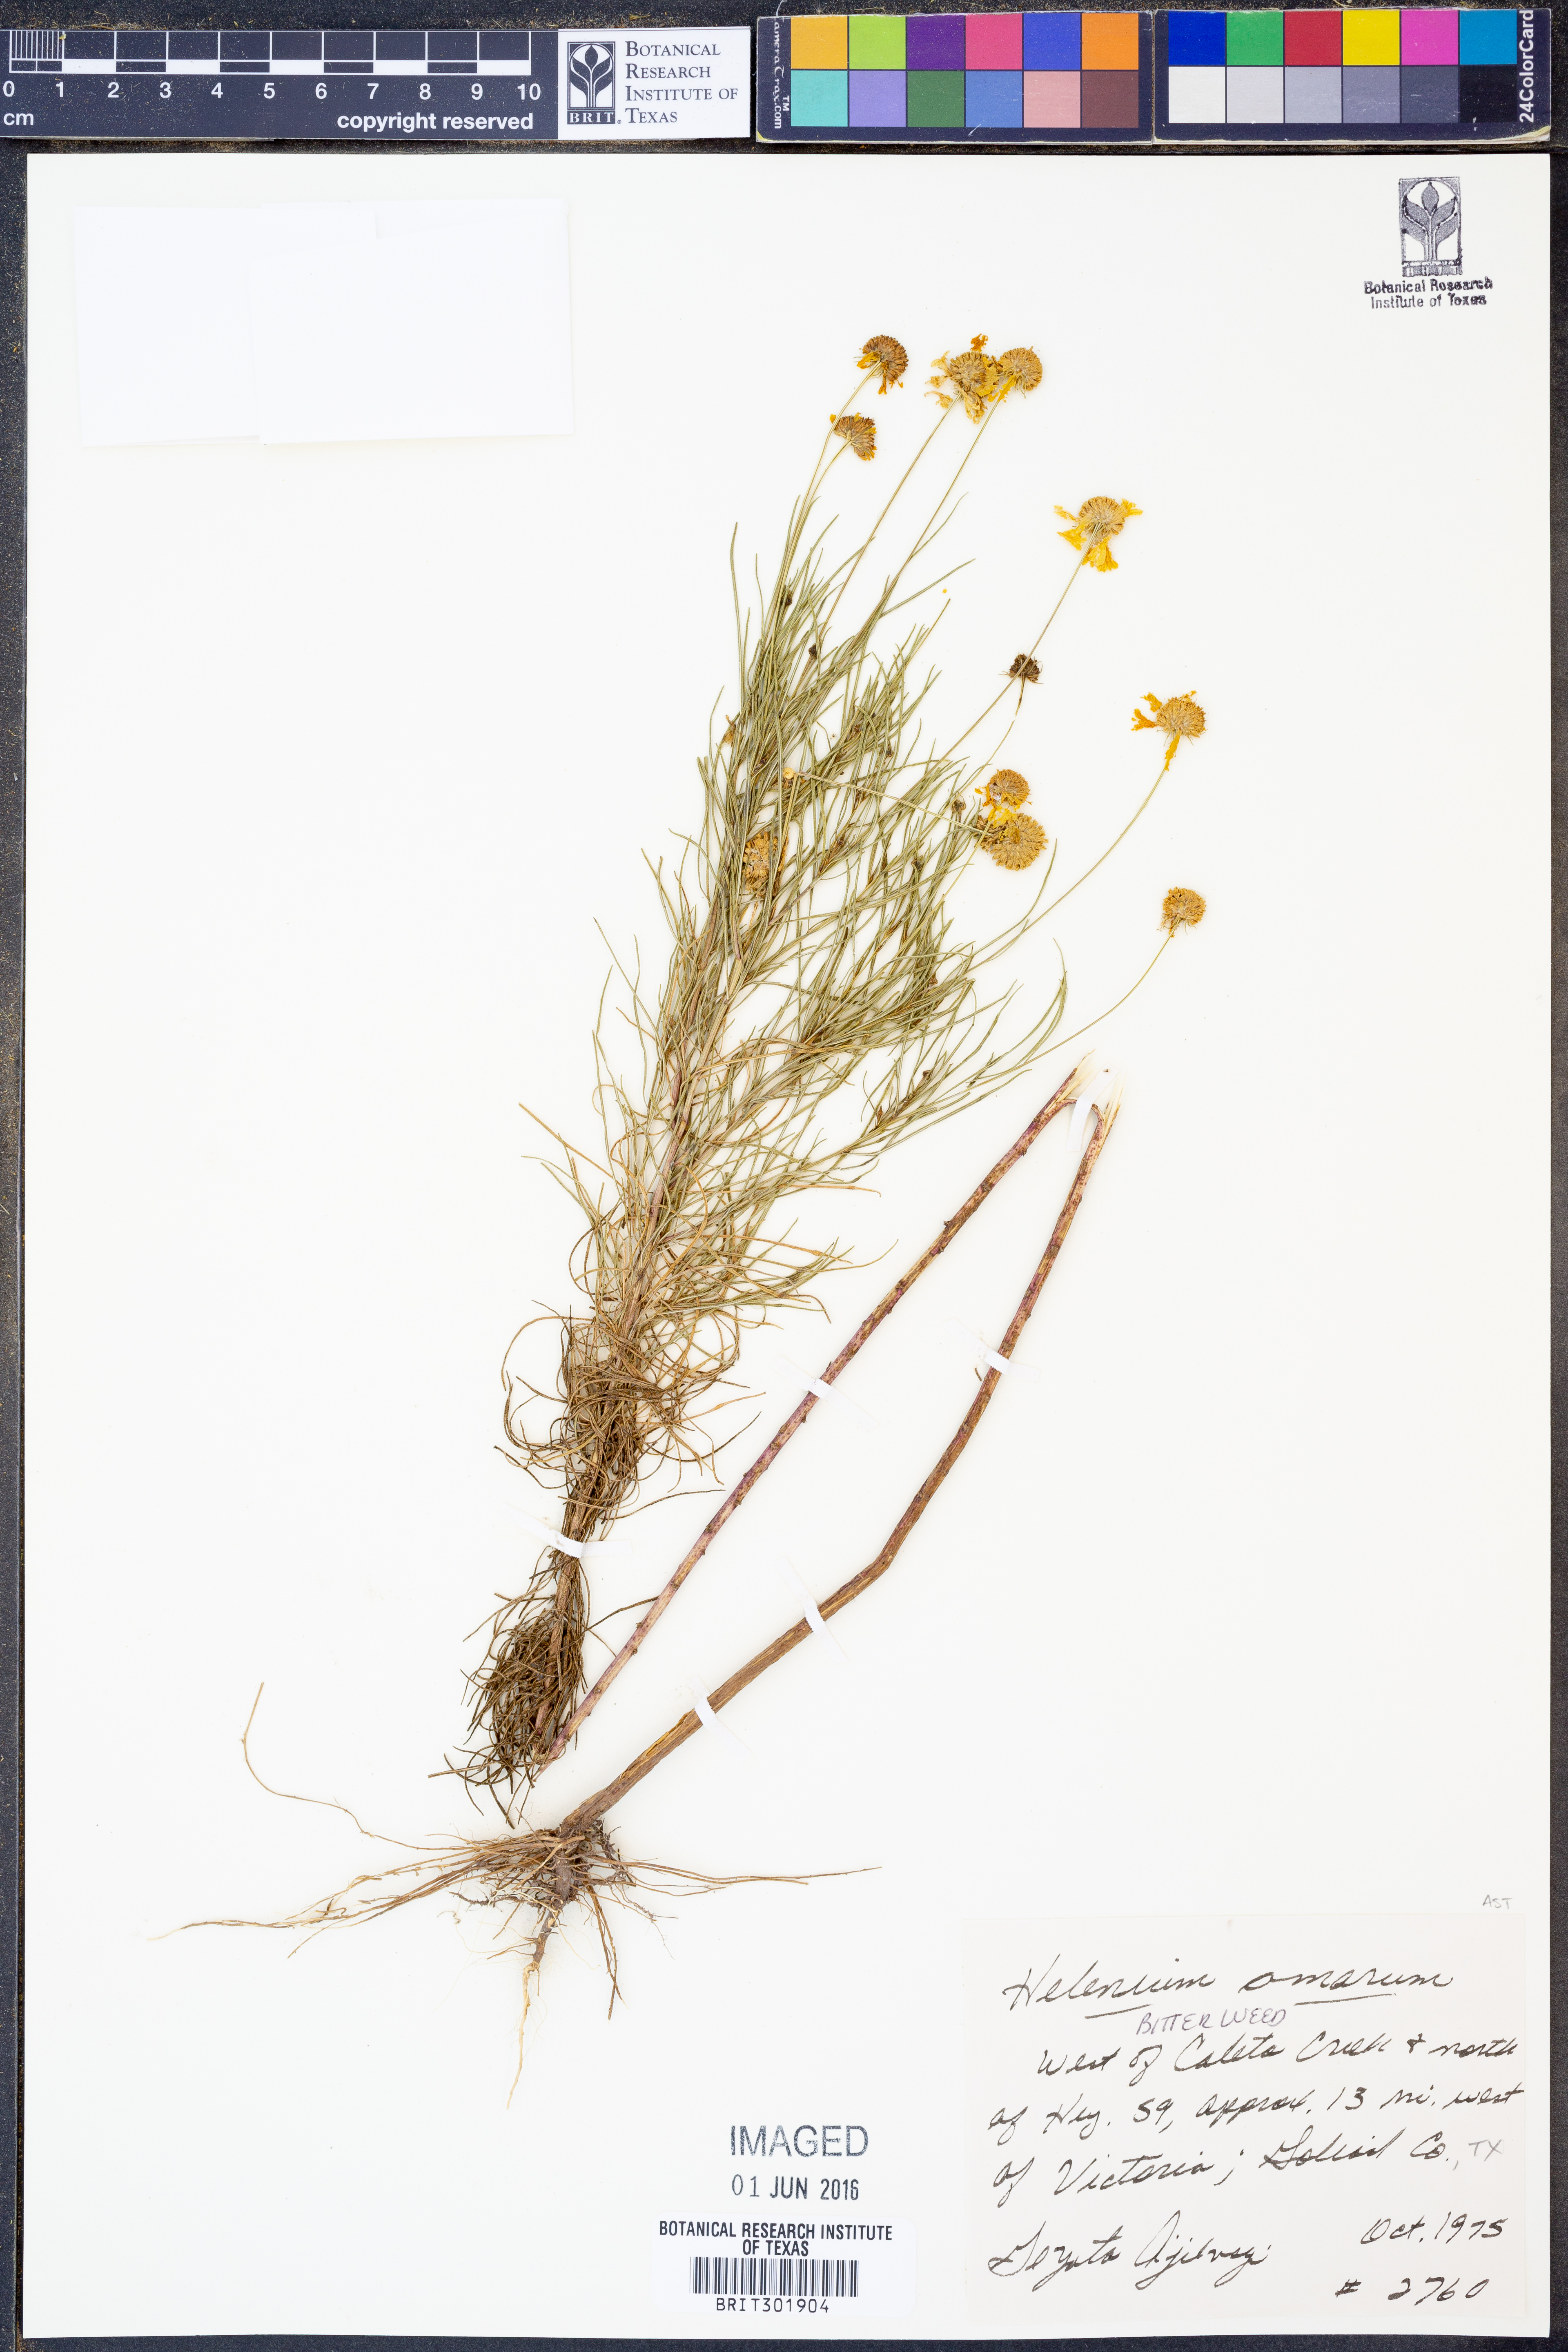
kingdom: Plantae
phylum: Tracheophyta
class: Magnoliopsida
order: Asterales
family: Asteraceae
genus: Helenium
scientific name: Helenium amarum
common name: Bitter sneezeweed
